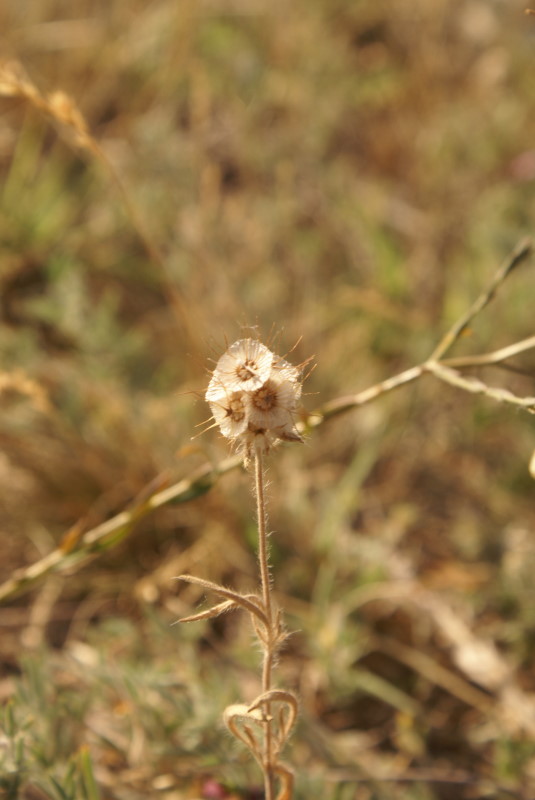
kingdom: Plantae
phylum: Tracheophyta
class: Magnoliopsida
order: Dipsacales
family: Caprifoliaceae
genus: Scabiosa
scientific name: Scabiosa
